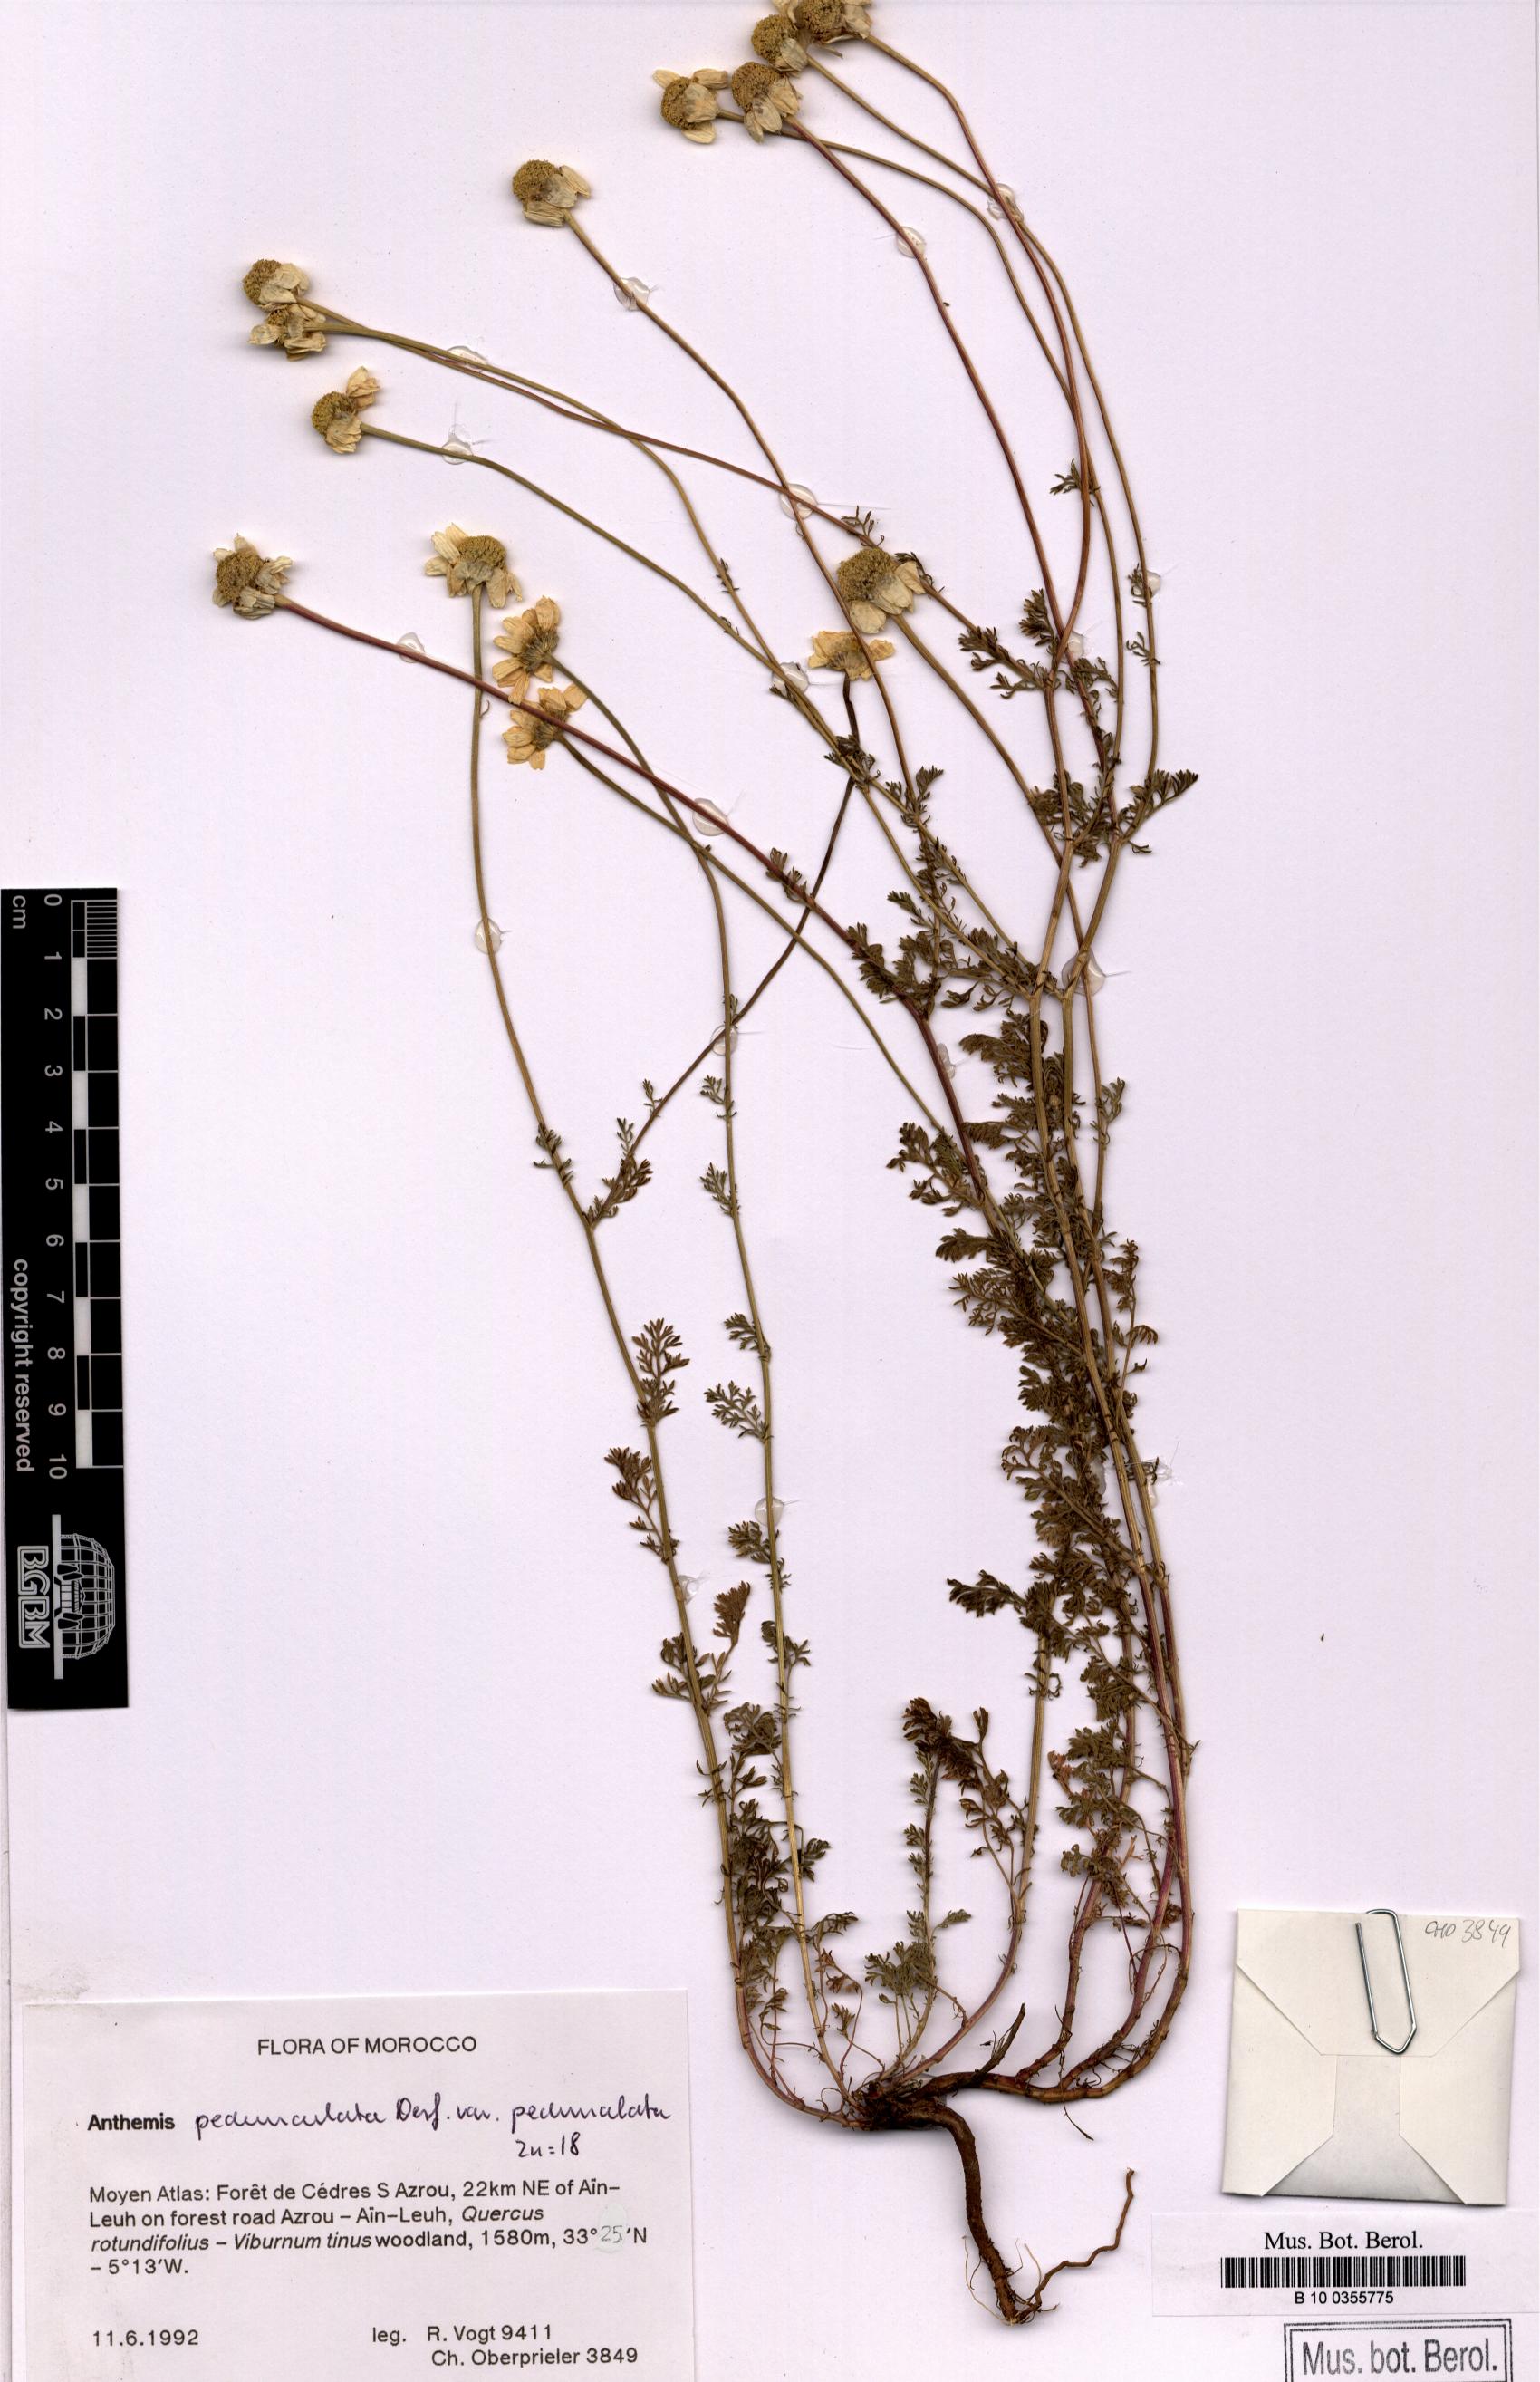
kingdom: Plantae
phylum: Tracheophyta
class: Magnoliopsida
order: Asterales
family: Asteraceae
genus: Anthemis
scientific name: Anthemis pedunculata
